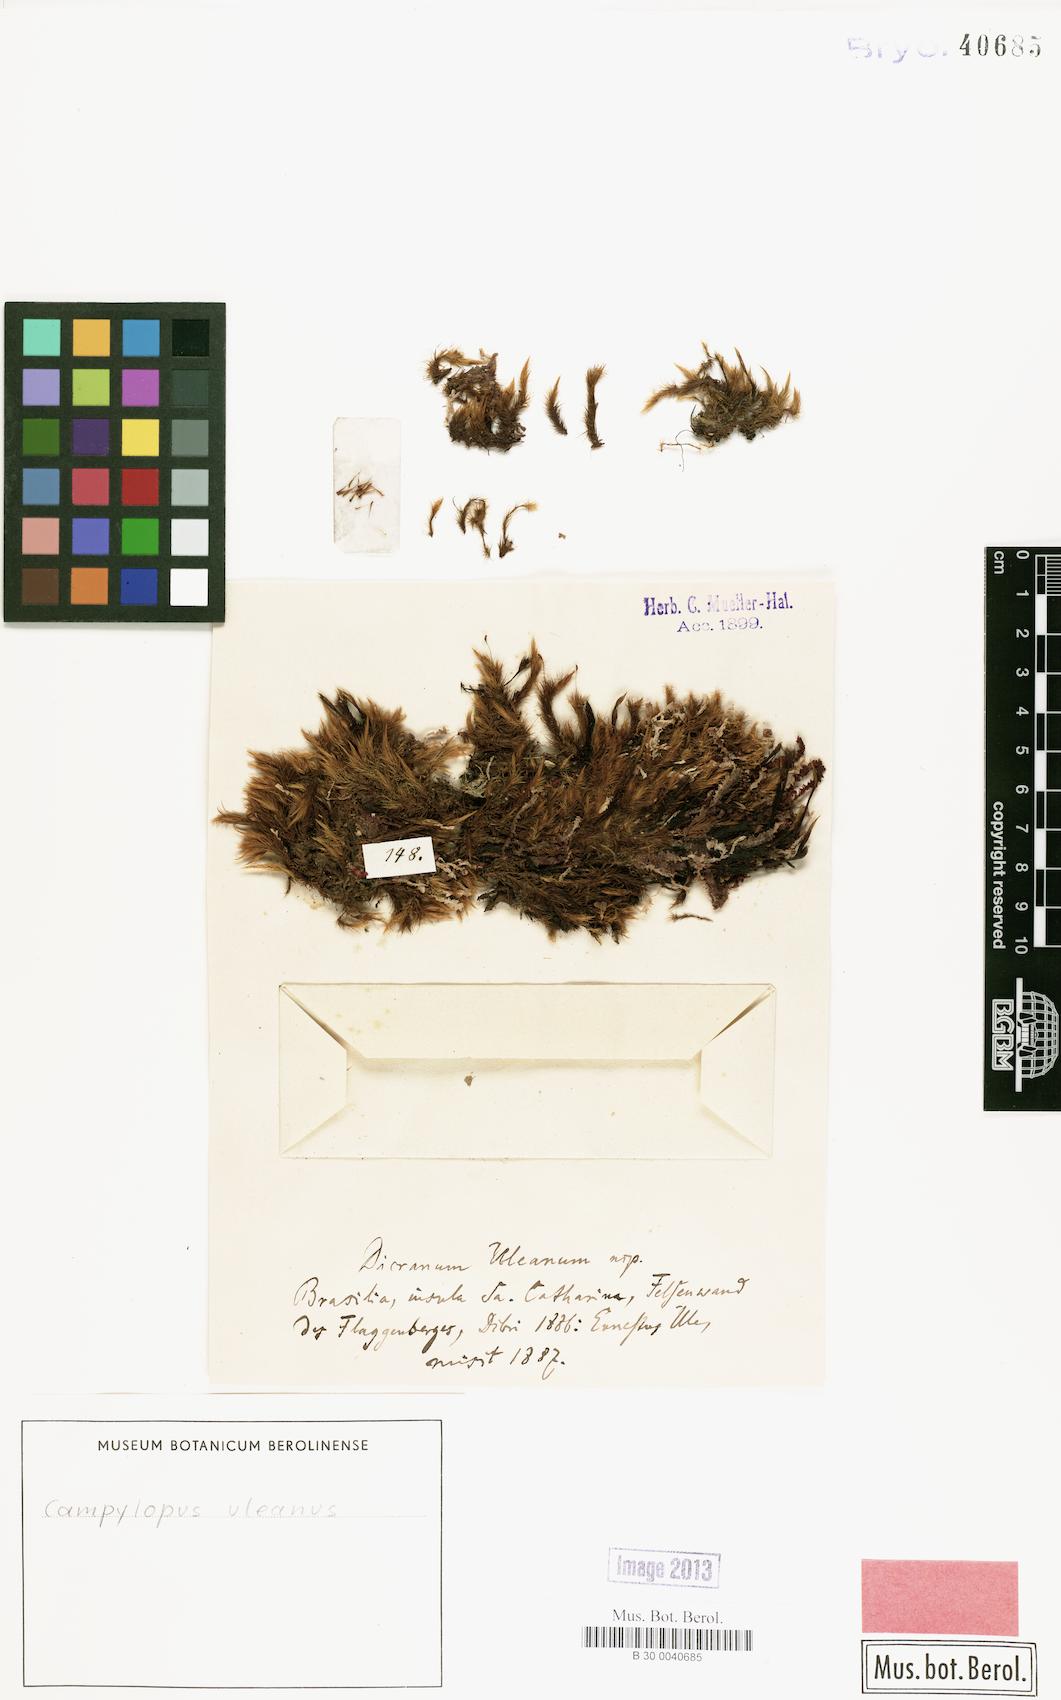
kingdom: Plantae
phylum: Bryophyta
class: Bryopsida
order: Dicranales
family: Leucobryaceae
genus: Campylopus
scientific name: Campylopus uleanus
